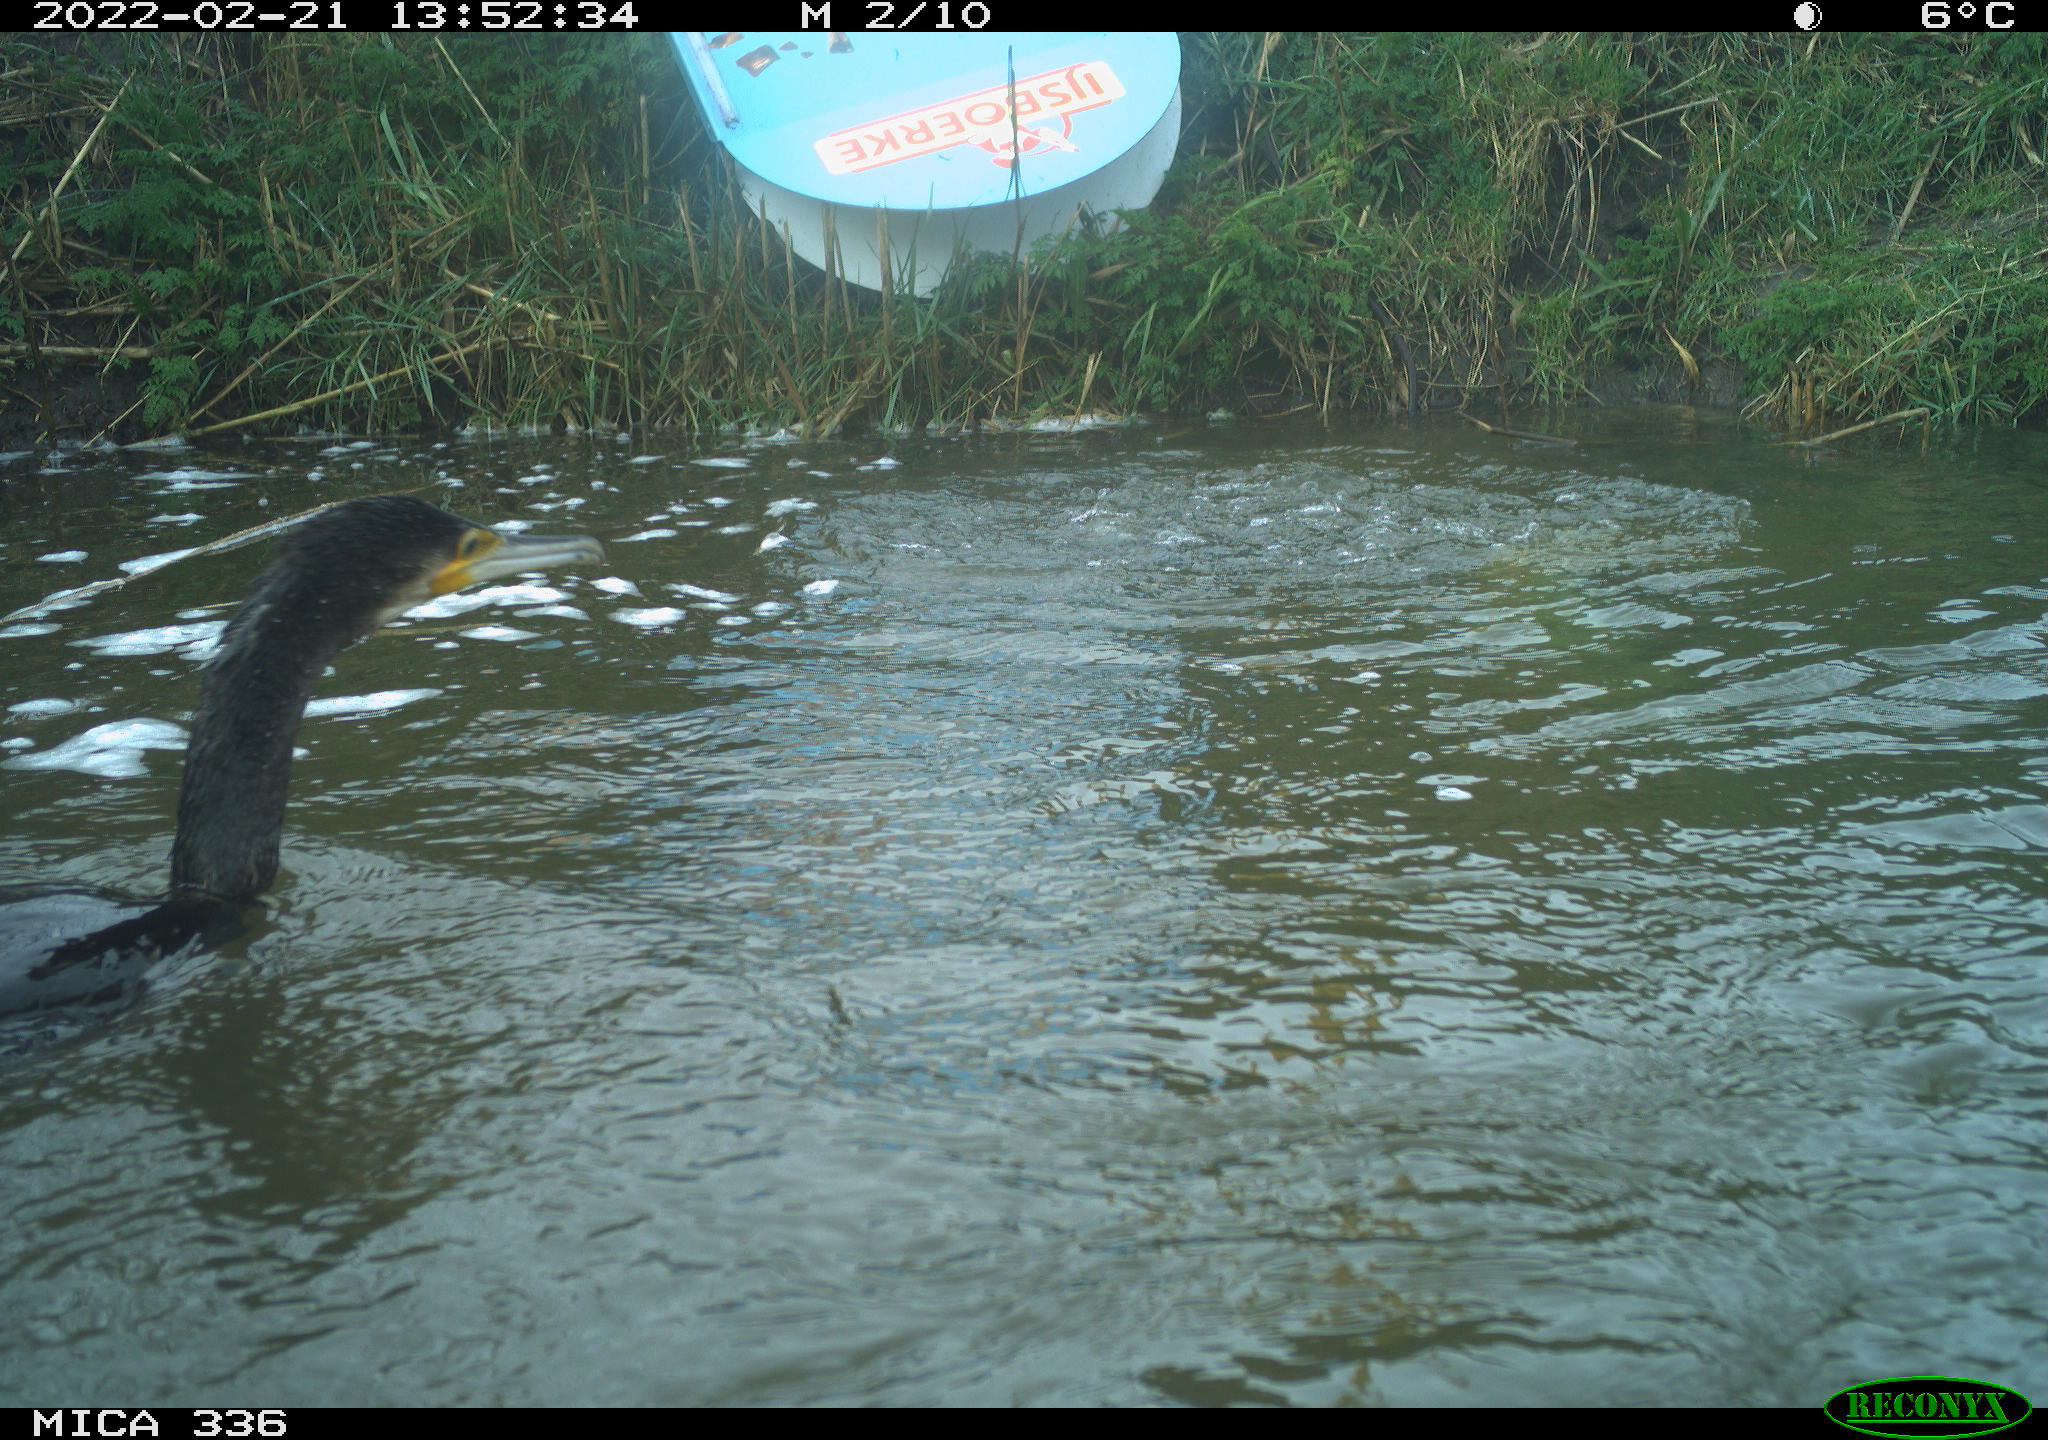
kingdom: Animalia
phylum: Chordata
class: Aves
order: Suliformes
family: Phalacrocoracidae
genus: Phalacrocorax
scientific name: Phalacrocorax carbo
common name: Great cormorant
